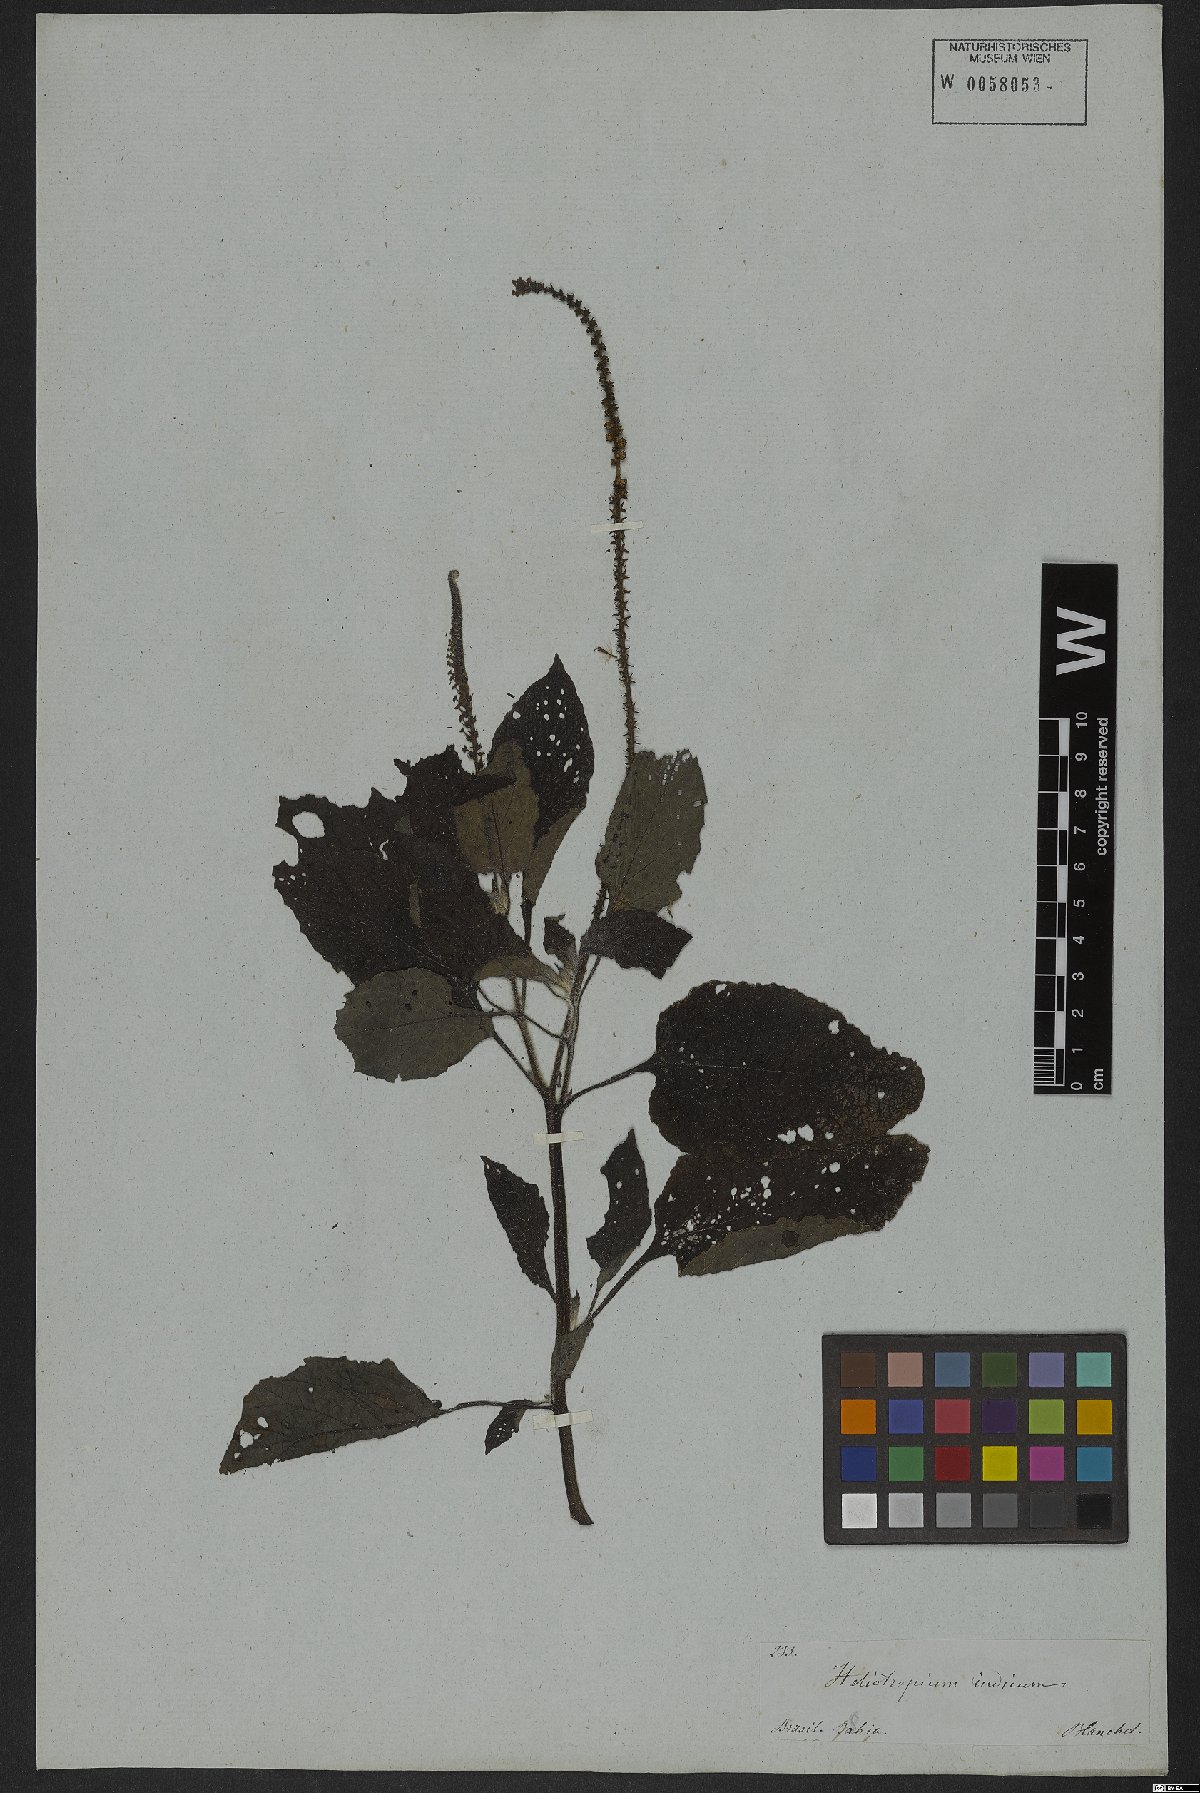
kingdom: Plantae
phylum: Tracheophyta
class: Magnoliopsida
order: Boraginales
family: Heliotropiaceae
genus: Heliotropium
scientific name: Heliotropium indicum
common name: Indian heliotrope
